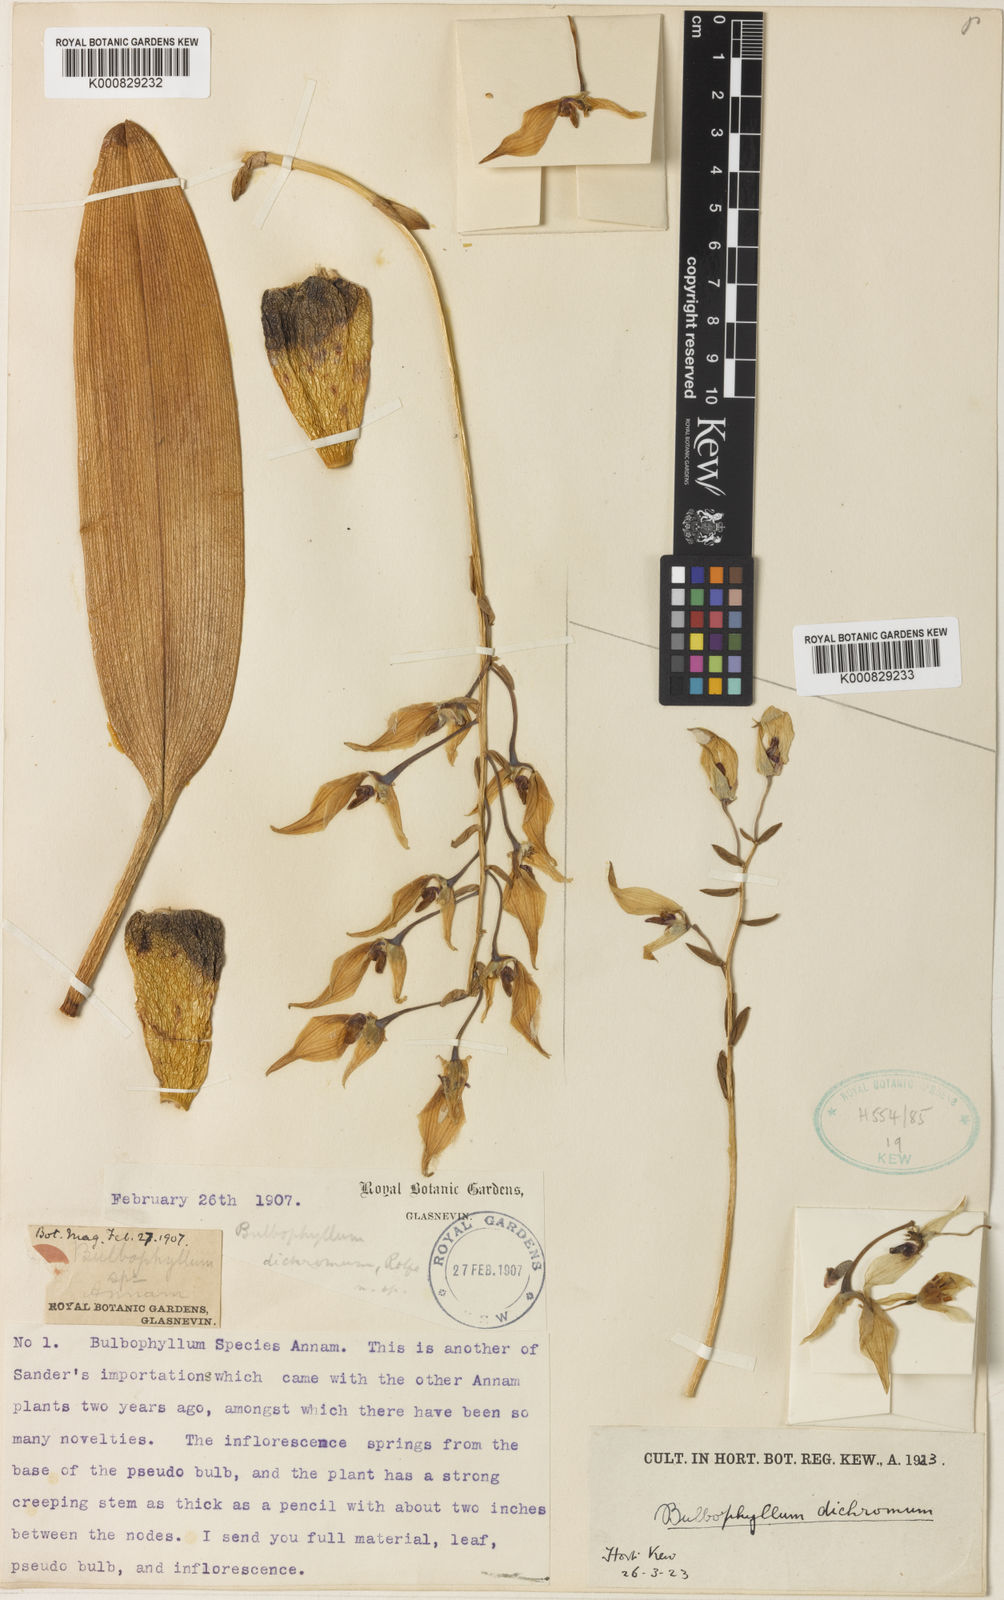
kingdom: Plantae
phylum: Tracheophyta
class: Liliopsida
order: Asparagales
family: Orchidaceae
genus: Bulbophyllum
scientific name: Bulbophyllum dichromum
